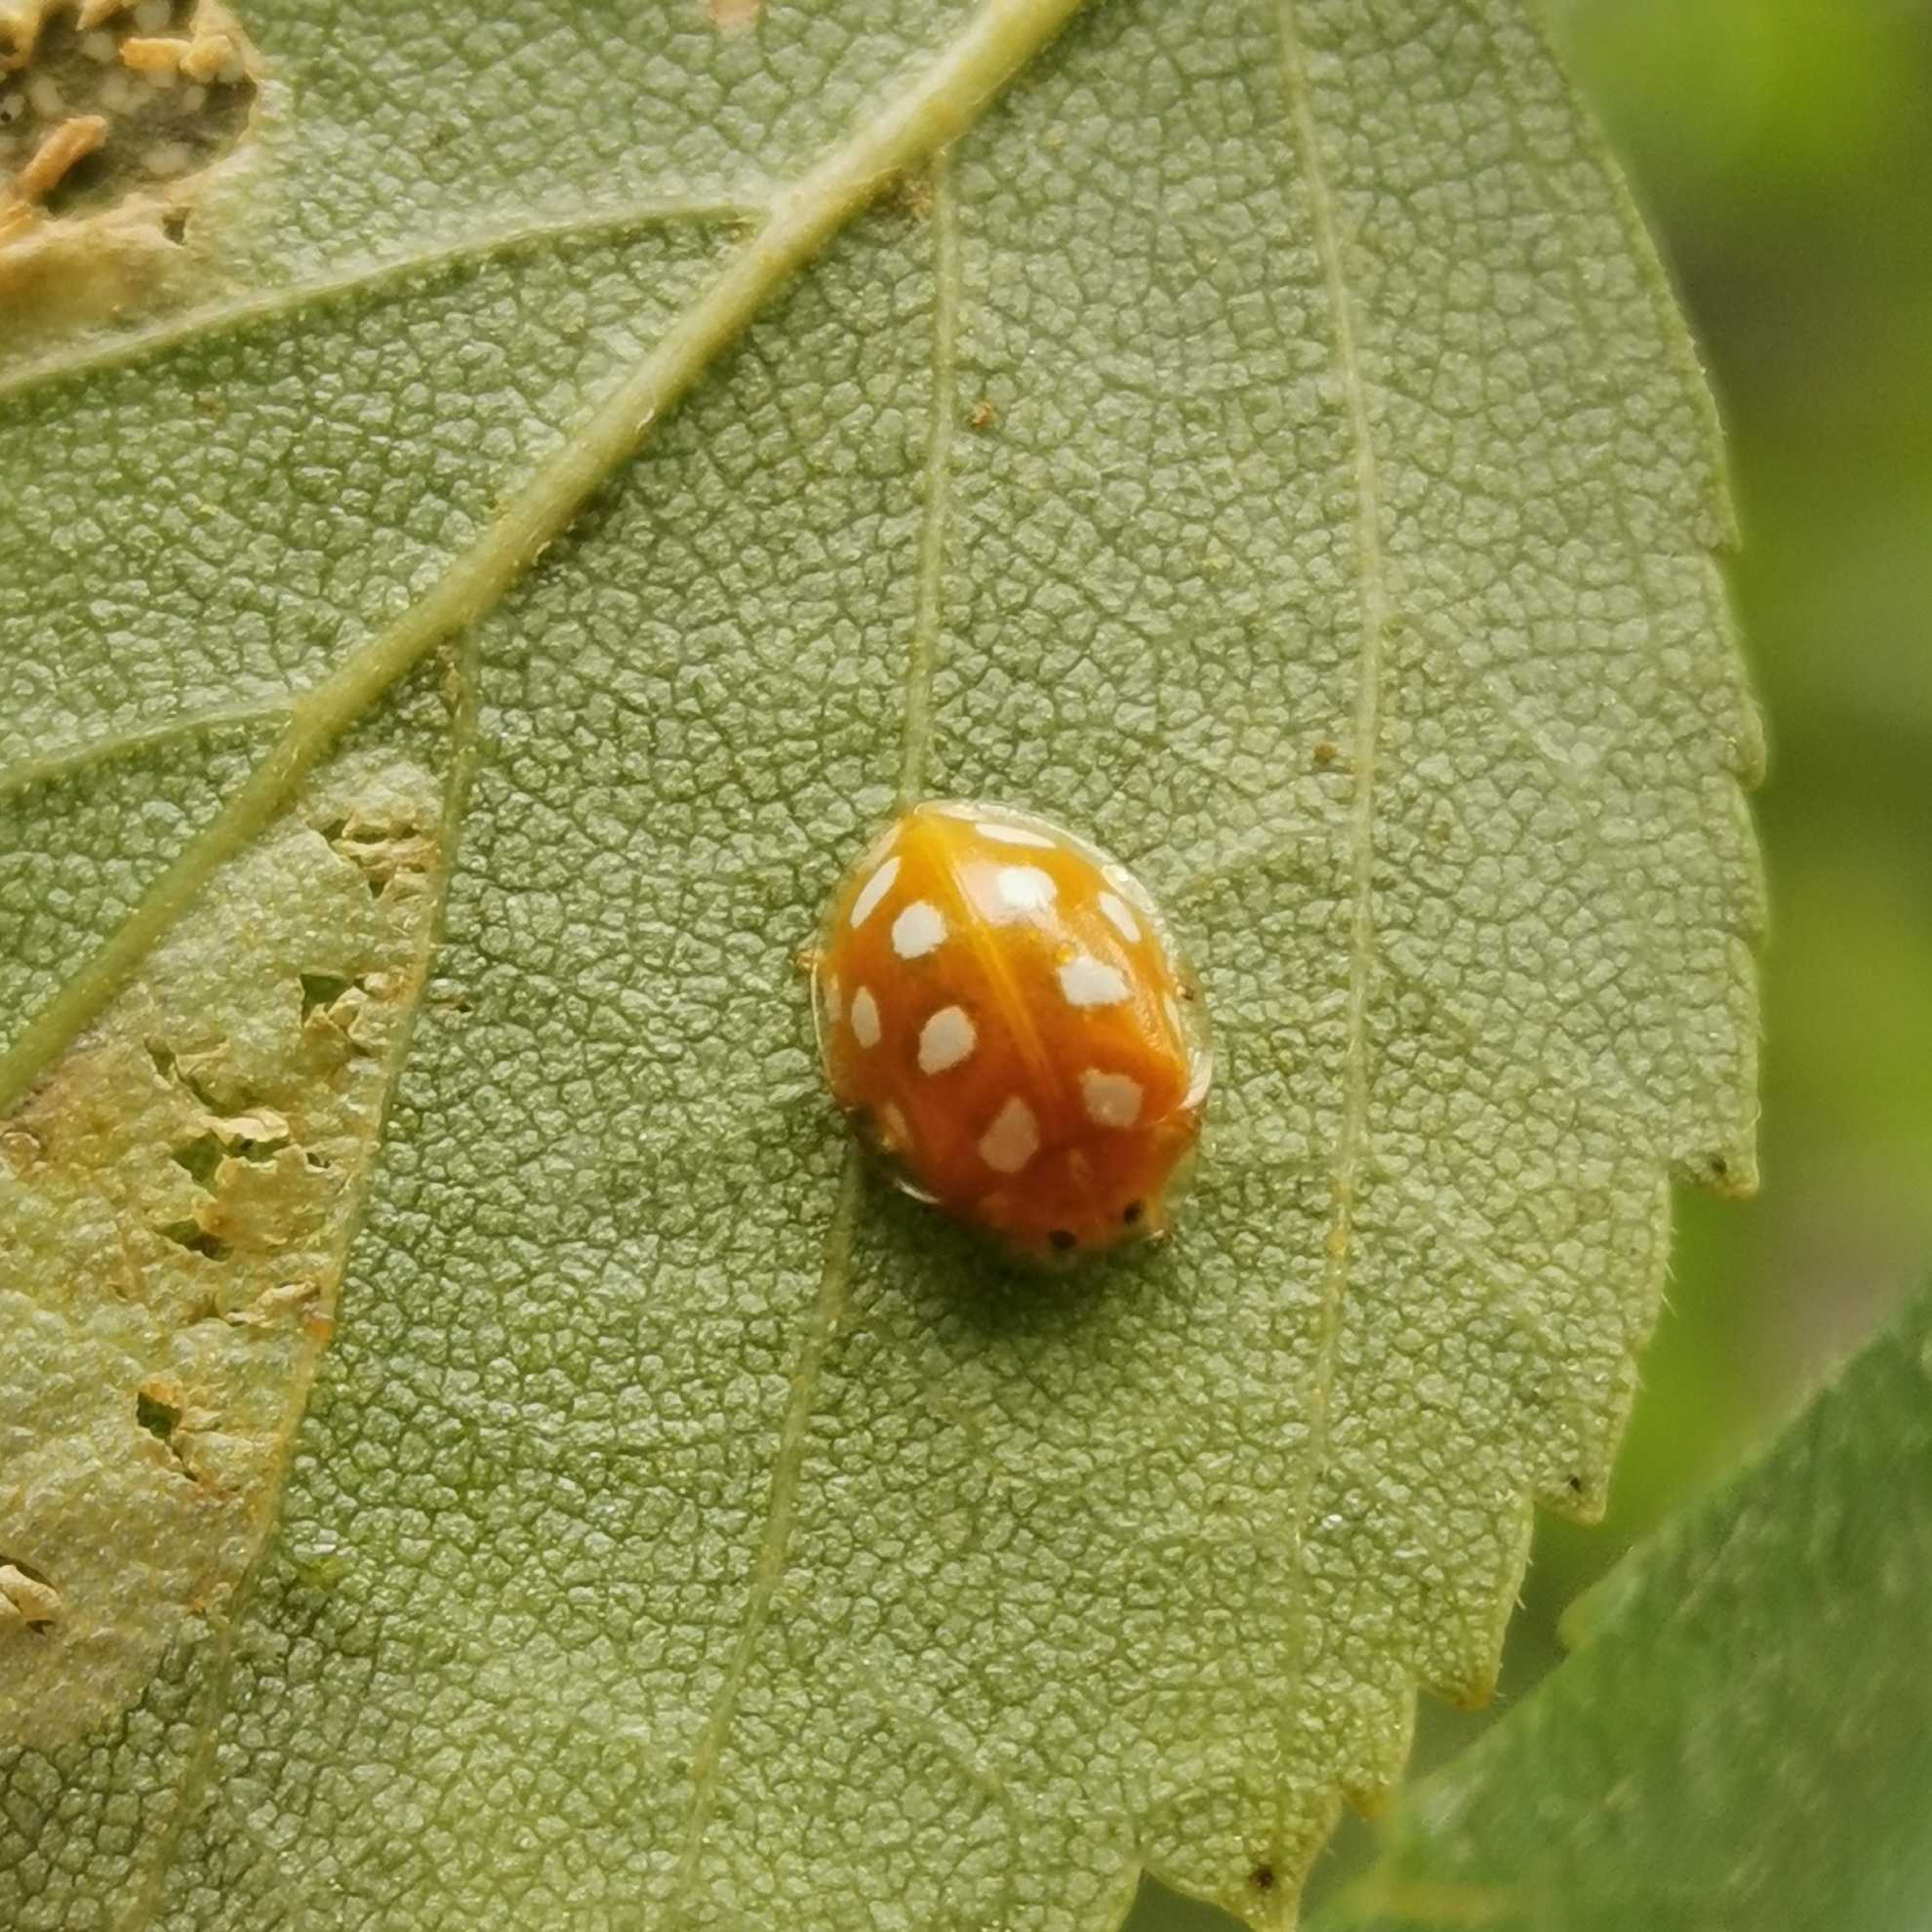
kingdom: Animalia
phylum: Arthropoda
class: Insecta
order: Coleoptera
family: Coccinellidae
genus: Halyzia
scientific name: Halyzia sedecimguttata
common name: Sekstenplettet mariehøne
